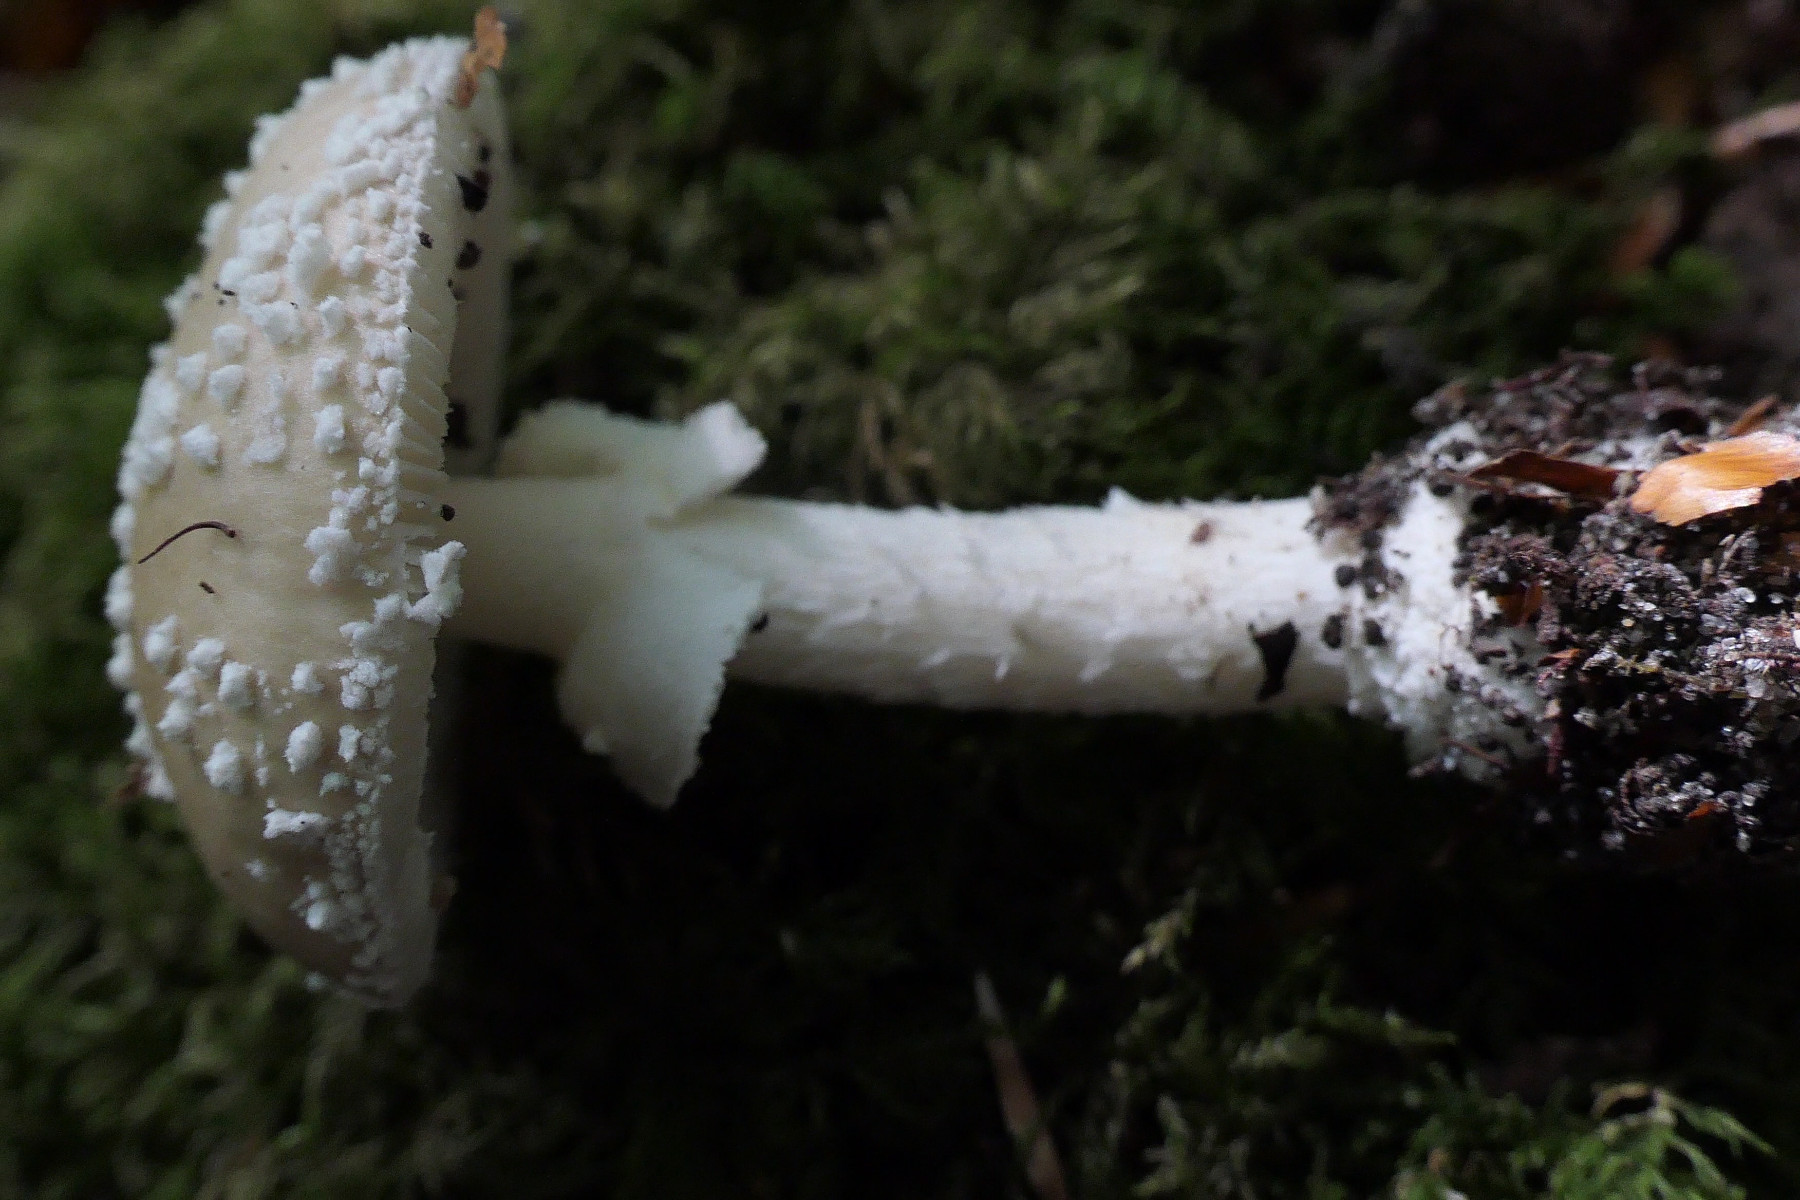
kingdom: Fungi
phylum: Basidiomycota
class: Agaricomycetes
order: Agaricales
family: Amanitaceae
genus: Amanita
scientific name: Amanita pantherina
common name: panter-fluesvamp
